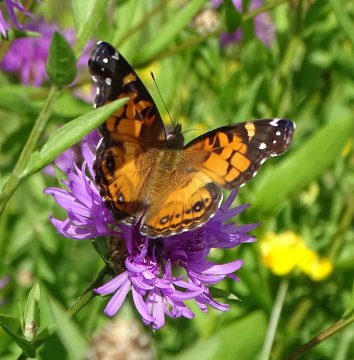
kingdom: Animalia
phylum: Arthropoda
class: Insecta
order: Lepidoptera
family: Nymphalidae
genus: Vanessa
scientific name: Vanessa virginiensis
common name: American Lady
